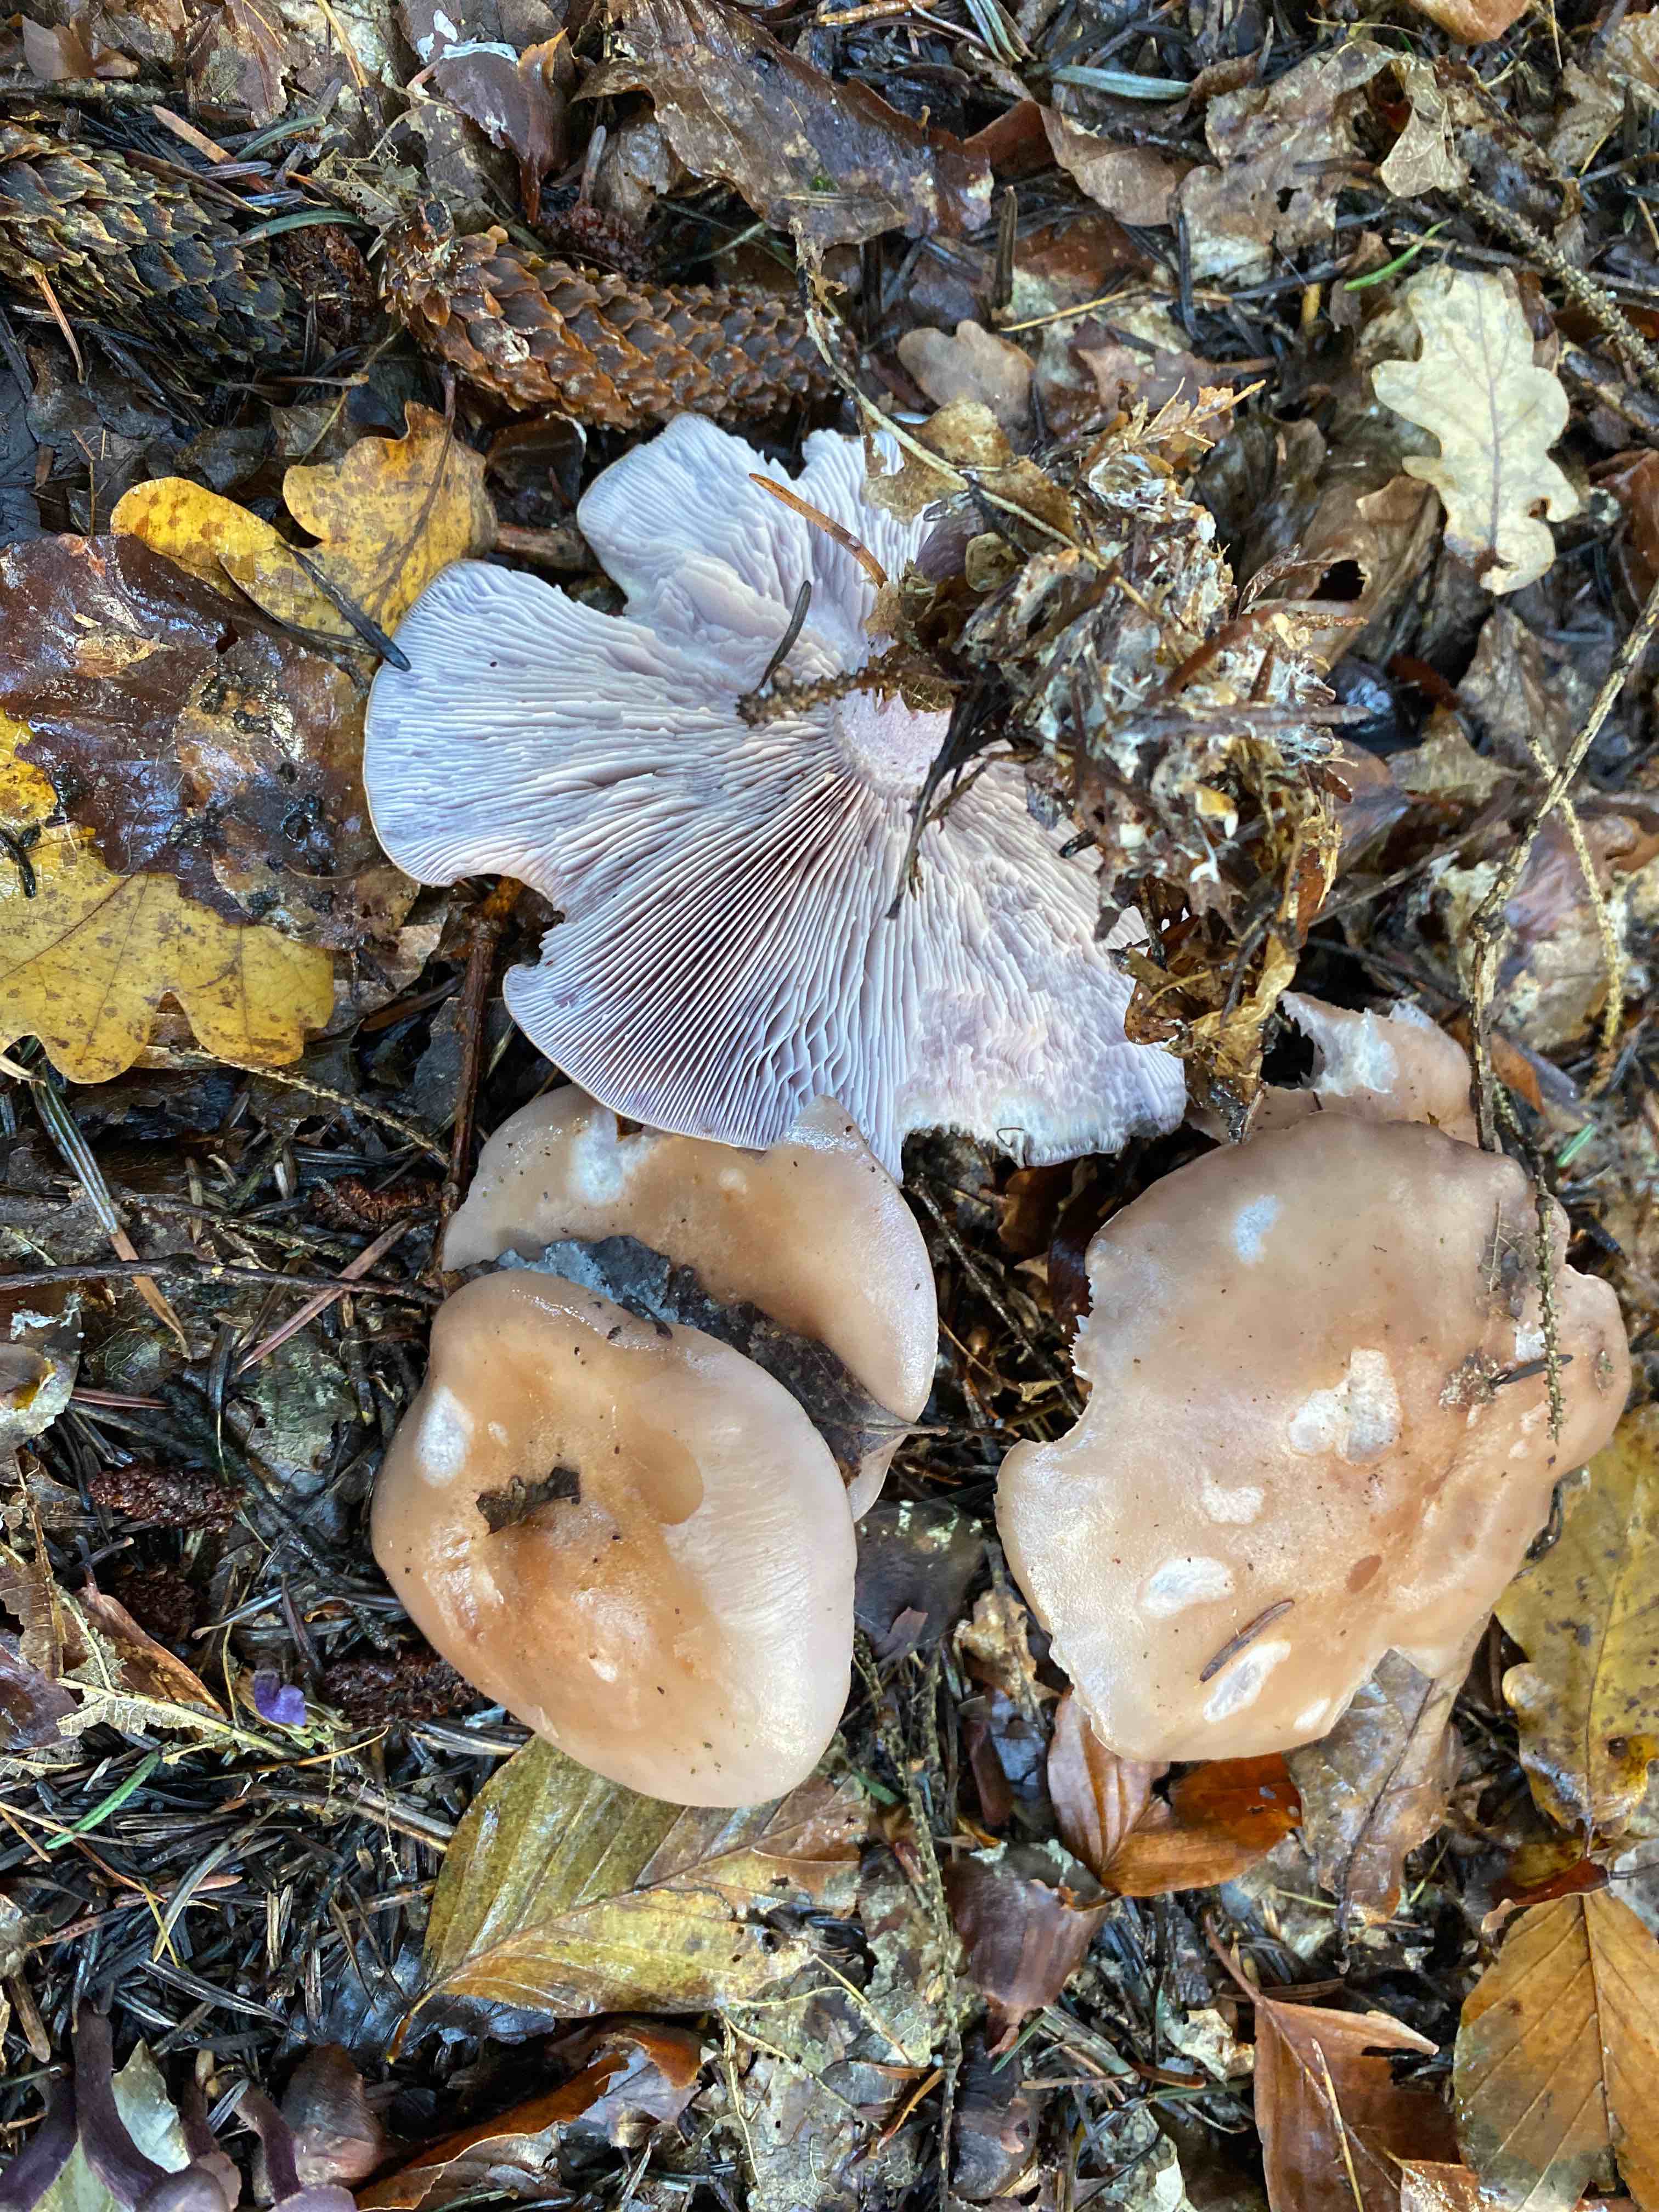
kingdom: Fungi
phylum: Basidiomycota
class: Agaricomycetes
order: Agaricales
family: Tricholomataceae
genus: Lepista
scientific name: Lepista nuda
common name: violet hekseringshat
